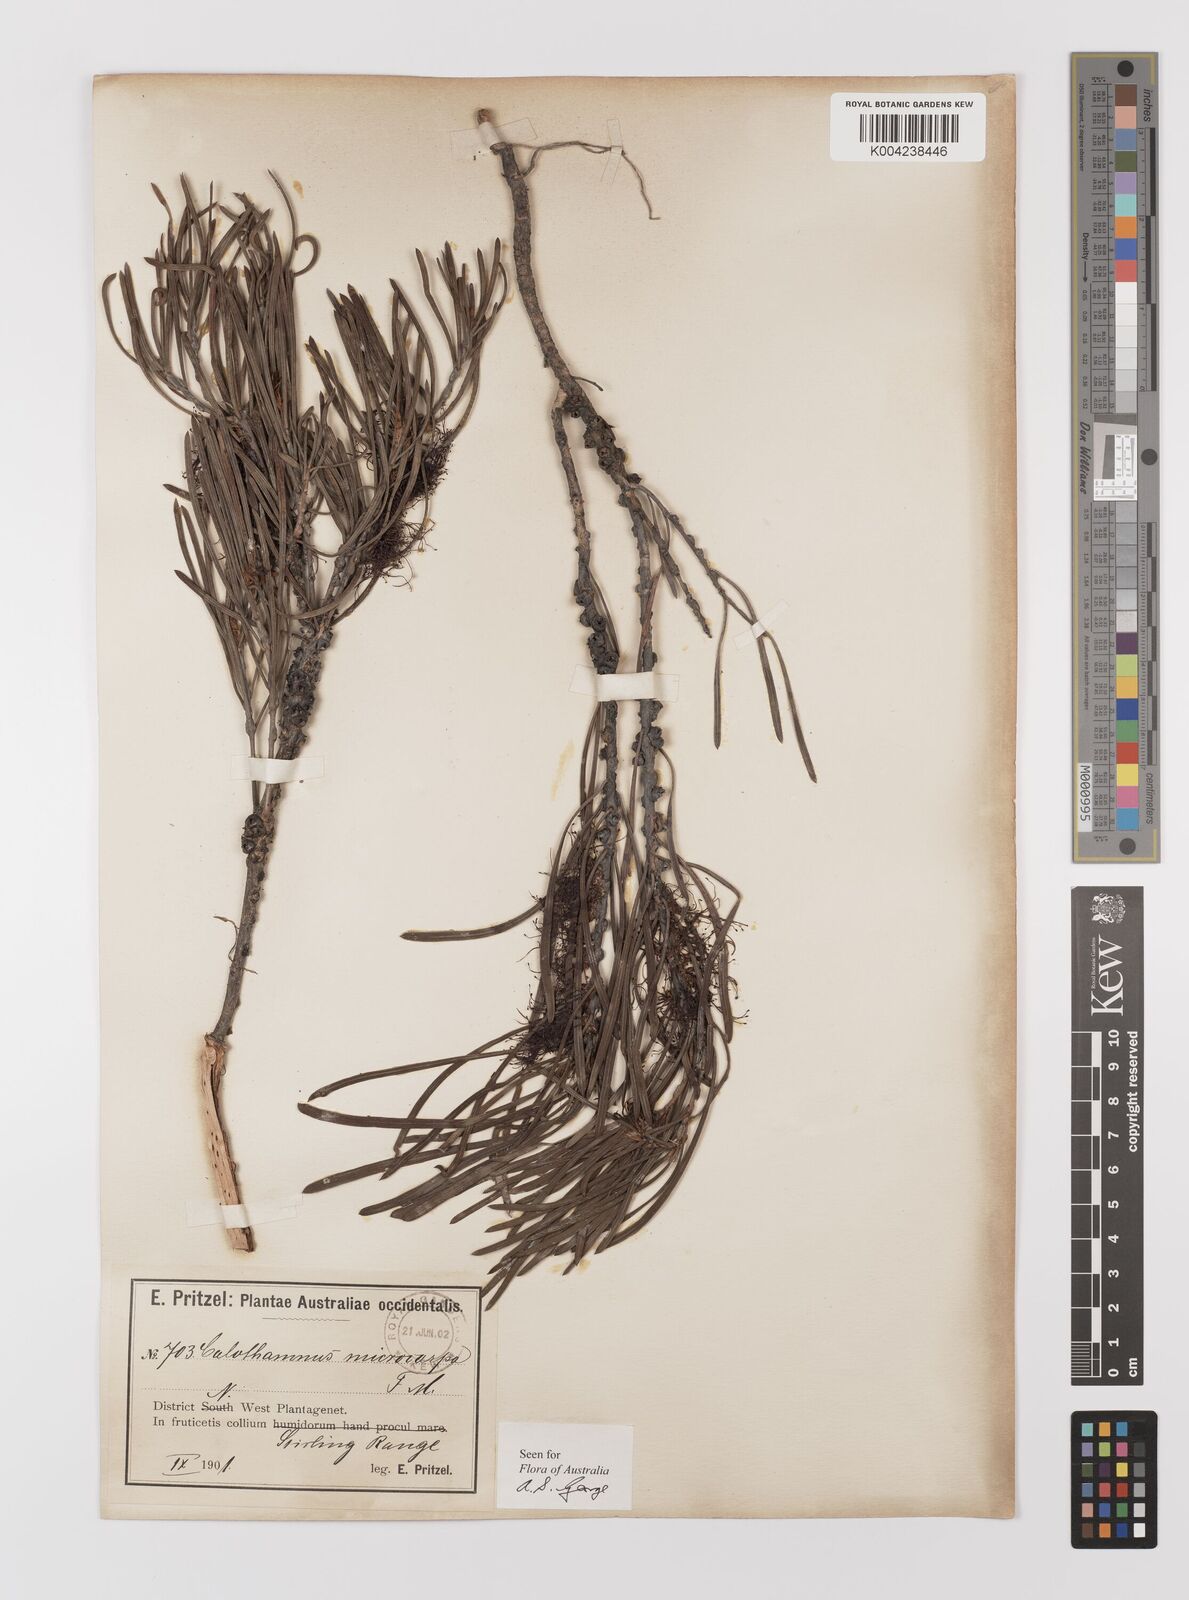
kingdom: Plantae
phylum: Tracheophyta
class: Magnoliopsida
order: Myrtales
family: Myrtaceae
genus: Melaleuca
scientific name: Melaleuca microcarpa
